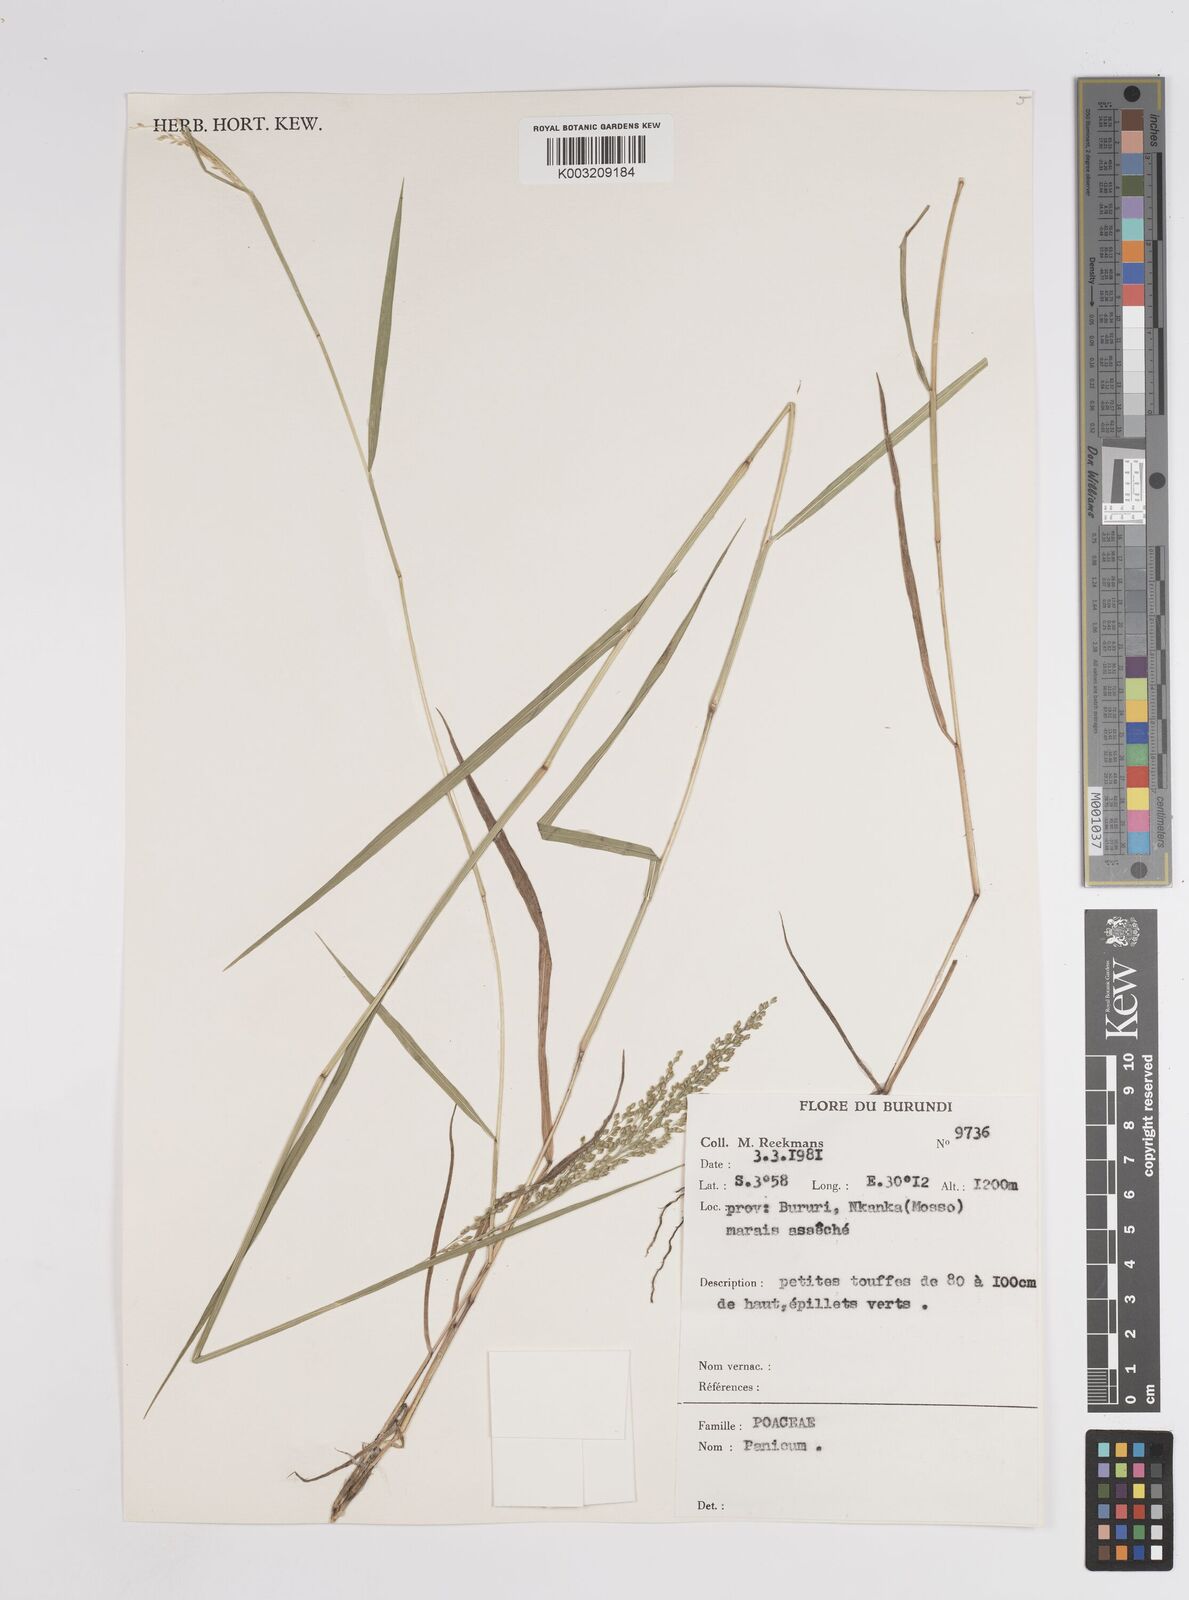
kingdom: Plantae
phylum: Tracheophyta
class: Liliopsida
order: Poales
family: Poaceae
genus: Panicum
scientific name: Panicum
